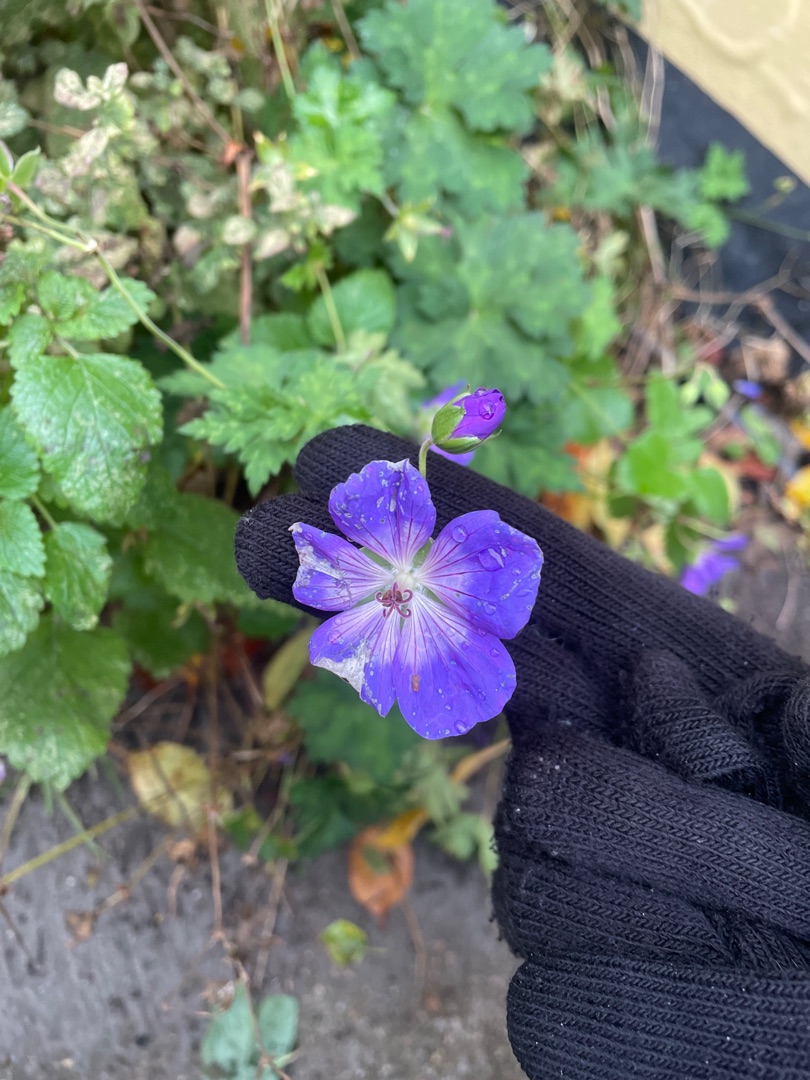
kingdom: Plantae
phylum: Tracheophyta
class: Magnoliopsida
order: Geraniales
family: Geraniaceae
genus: Geranium
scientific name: Geranium
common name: Storkenæbslægten
